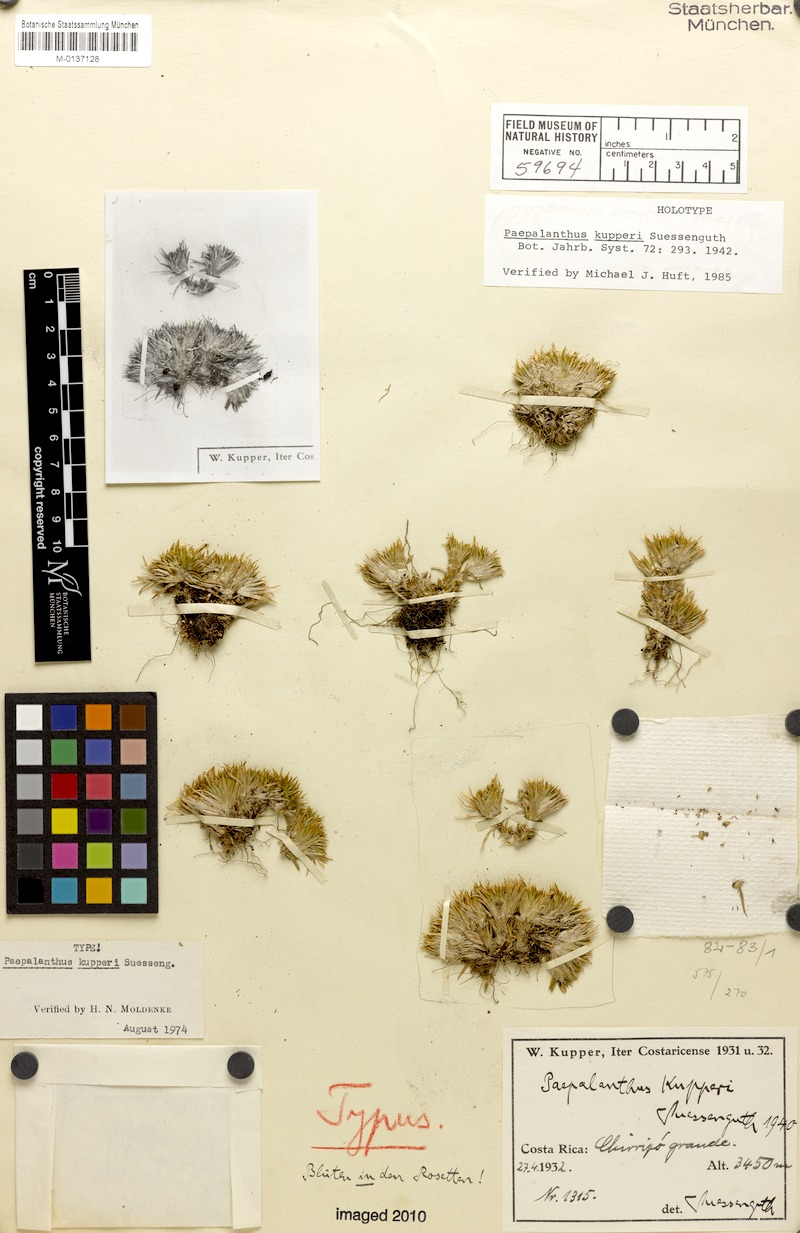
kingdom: Plantae
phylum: Tracheophyta
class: Liliopsida
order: Poales
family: Eriocaulaceae
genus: Paepalanthus
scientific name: Paepalanthus pilosus
